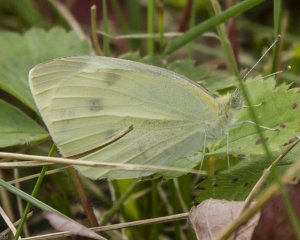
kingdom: Animalia
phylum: Arthropoda
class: Insecta
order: Lepidoptera
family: Pieridae
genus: Pieris
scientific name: Pieris rapae
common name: Cabbage White
